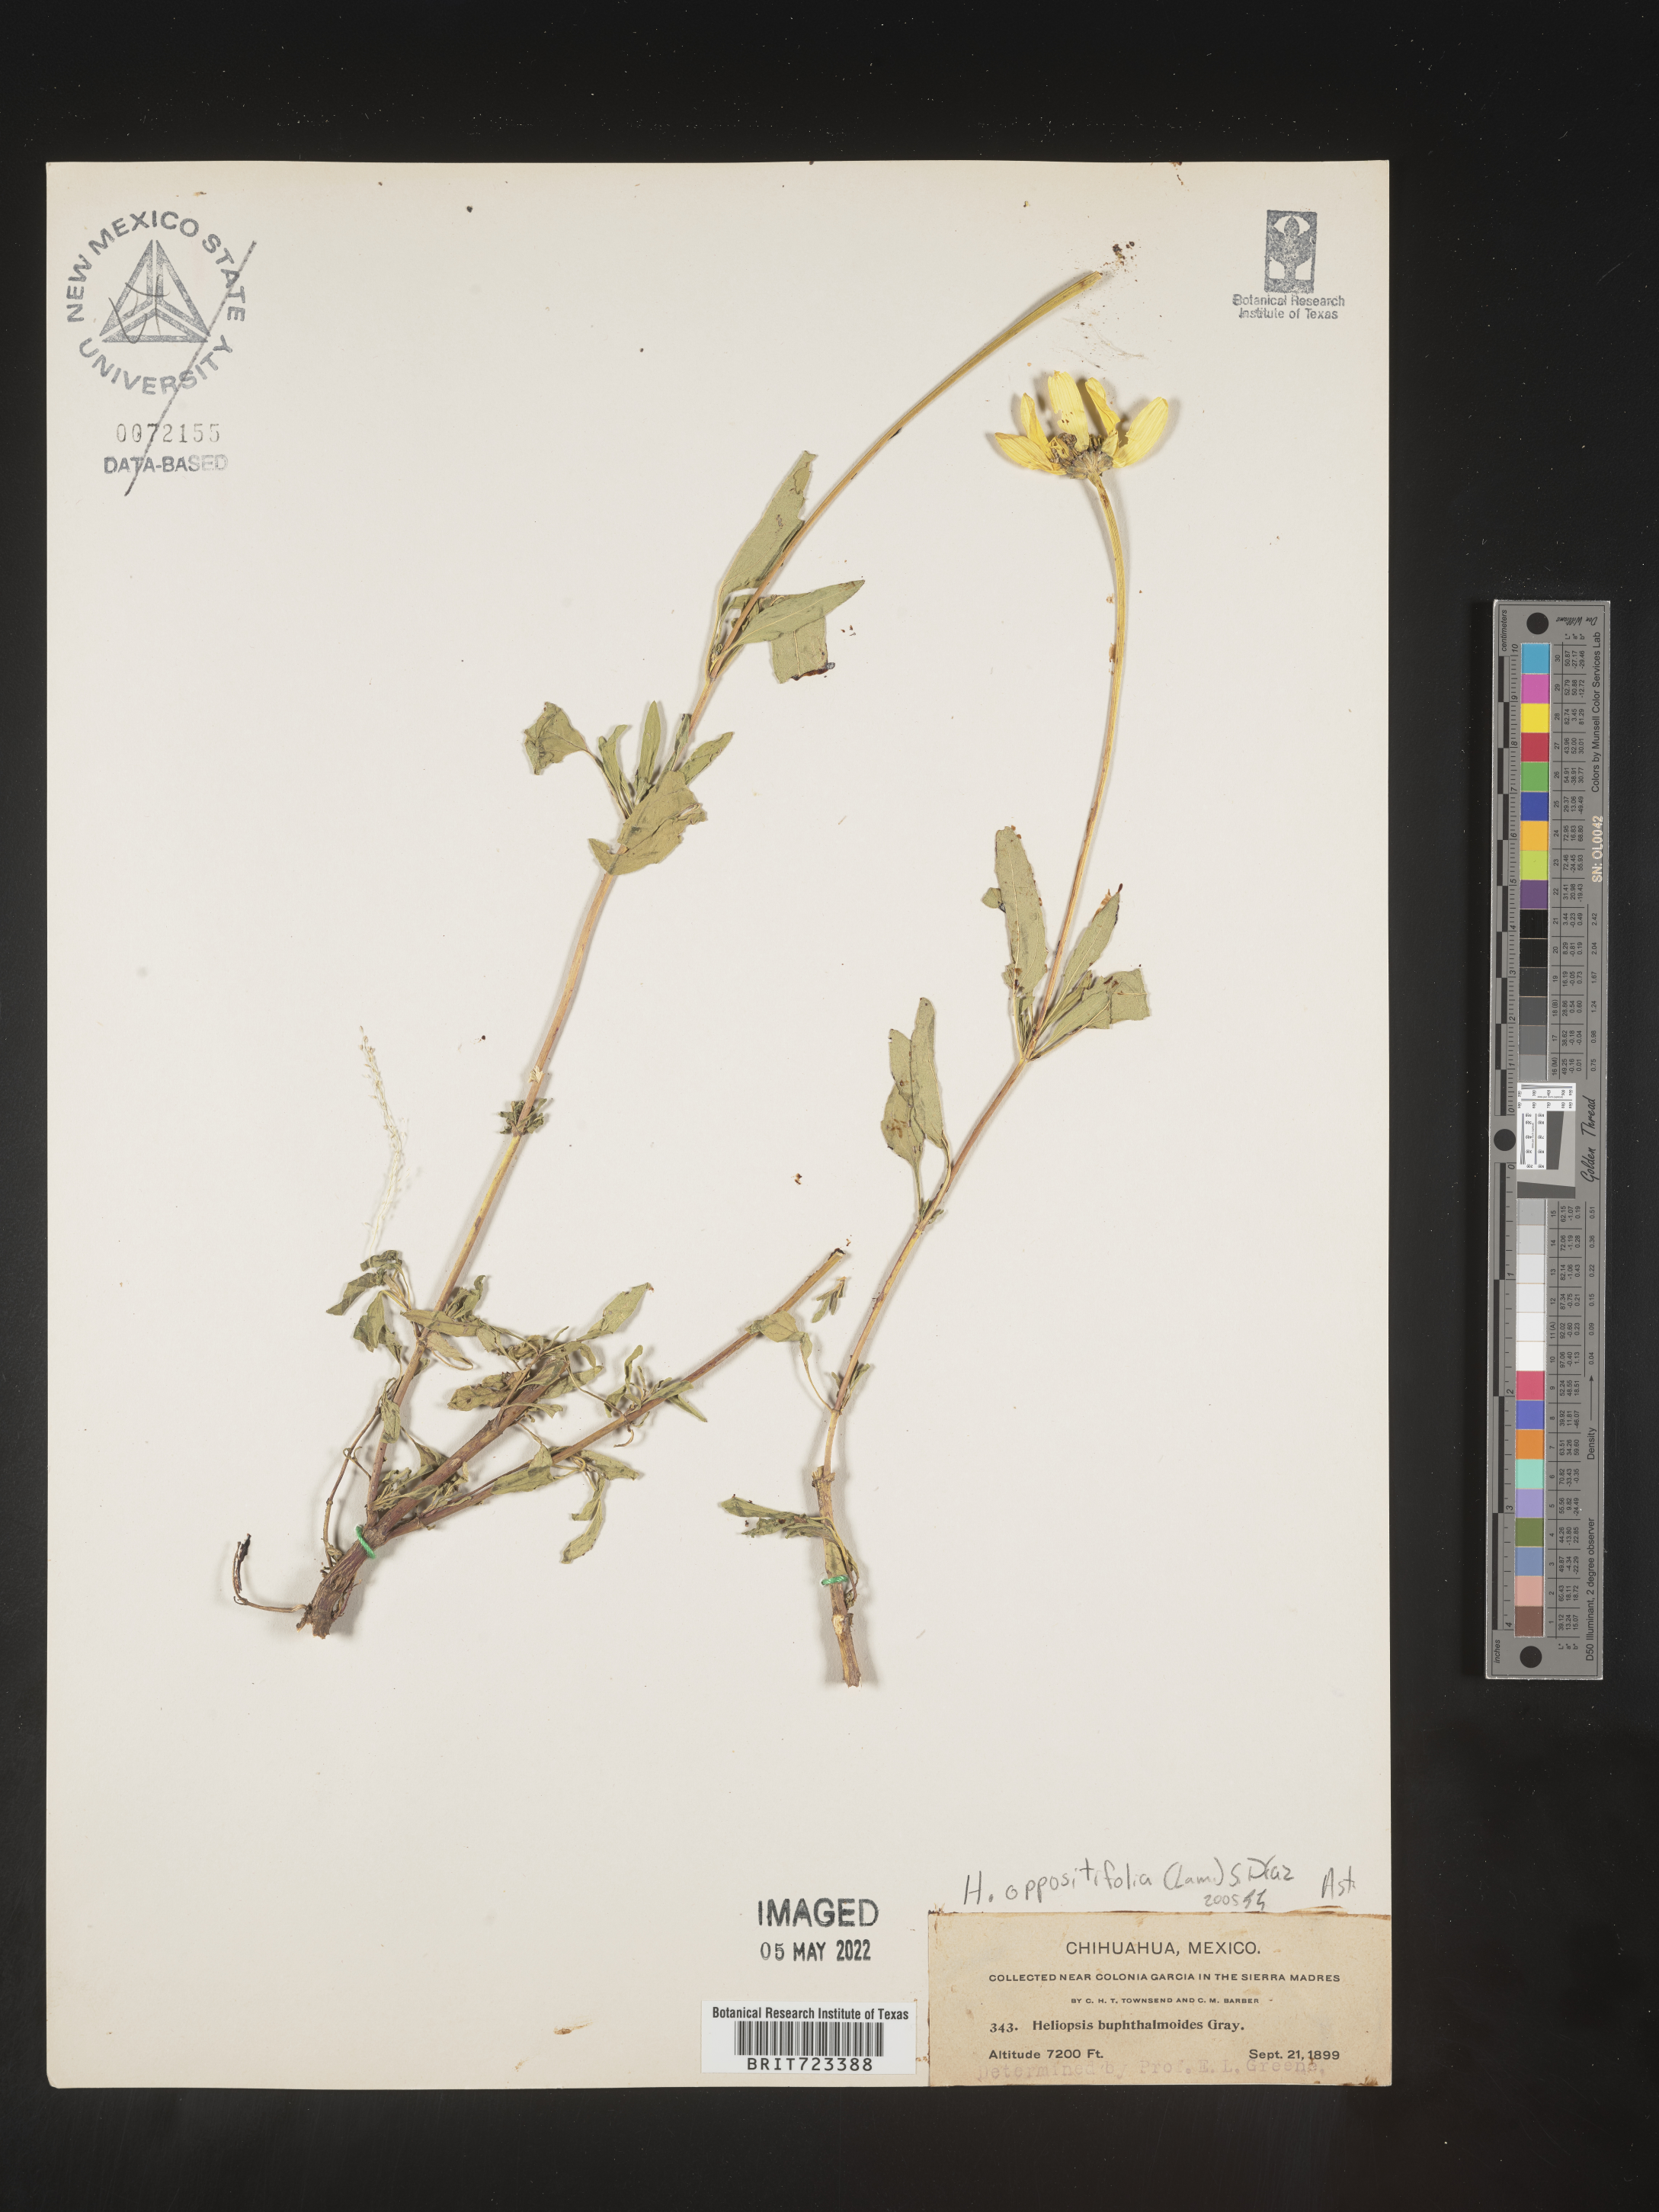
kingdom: Plantae
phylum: Tracheophyta
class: Magnoliopsida
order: Asterales
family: Asteraceae
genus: Heliopsis
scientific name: Heliopsis
